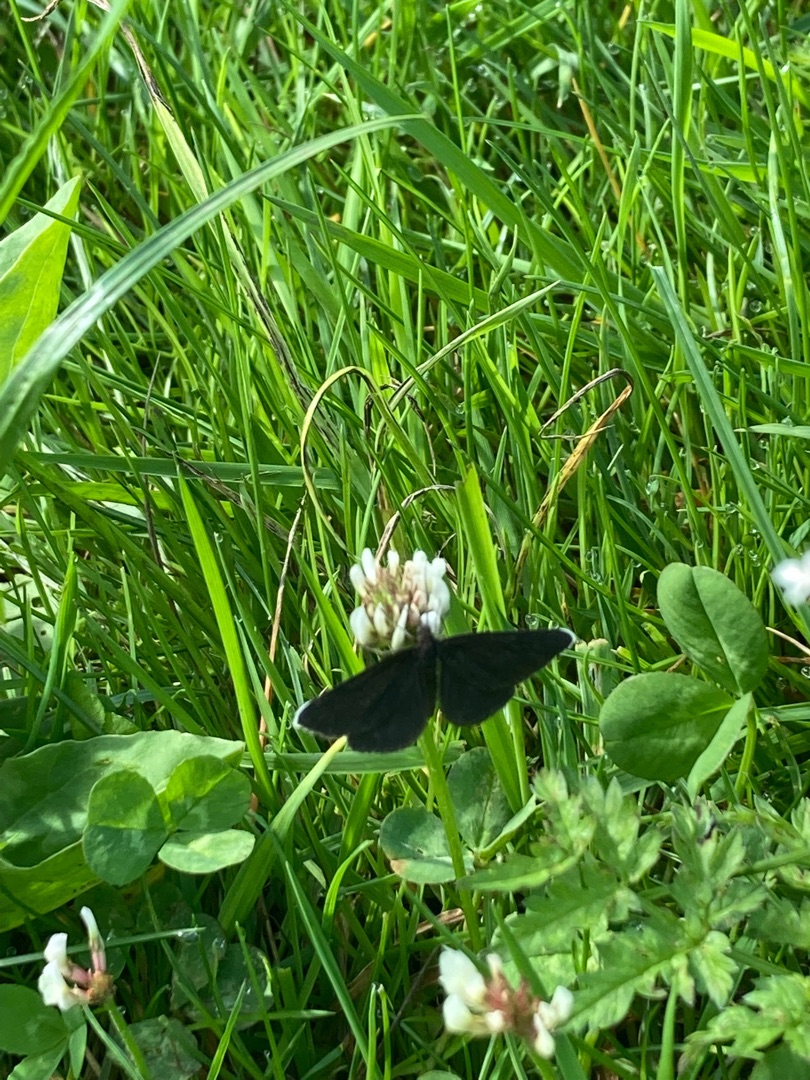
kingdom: Animalia
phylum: Arthropoda
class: Insecta
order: Lepidoptera
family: Geometridae
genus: Odezia
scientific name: Odezia atrata
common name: Sort måler
